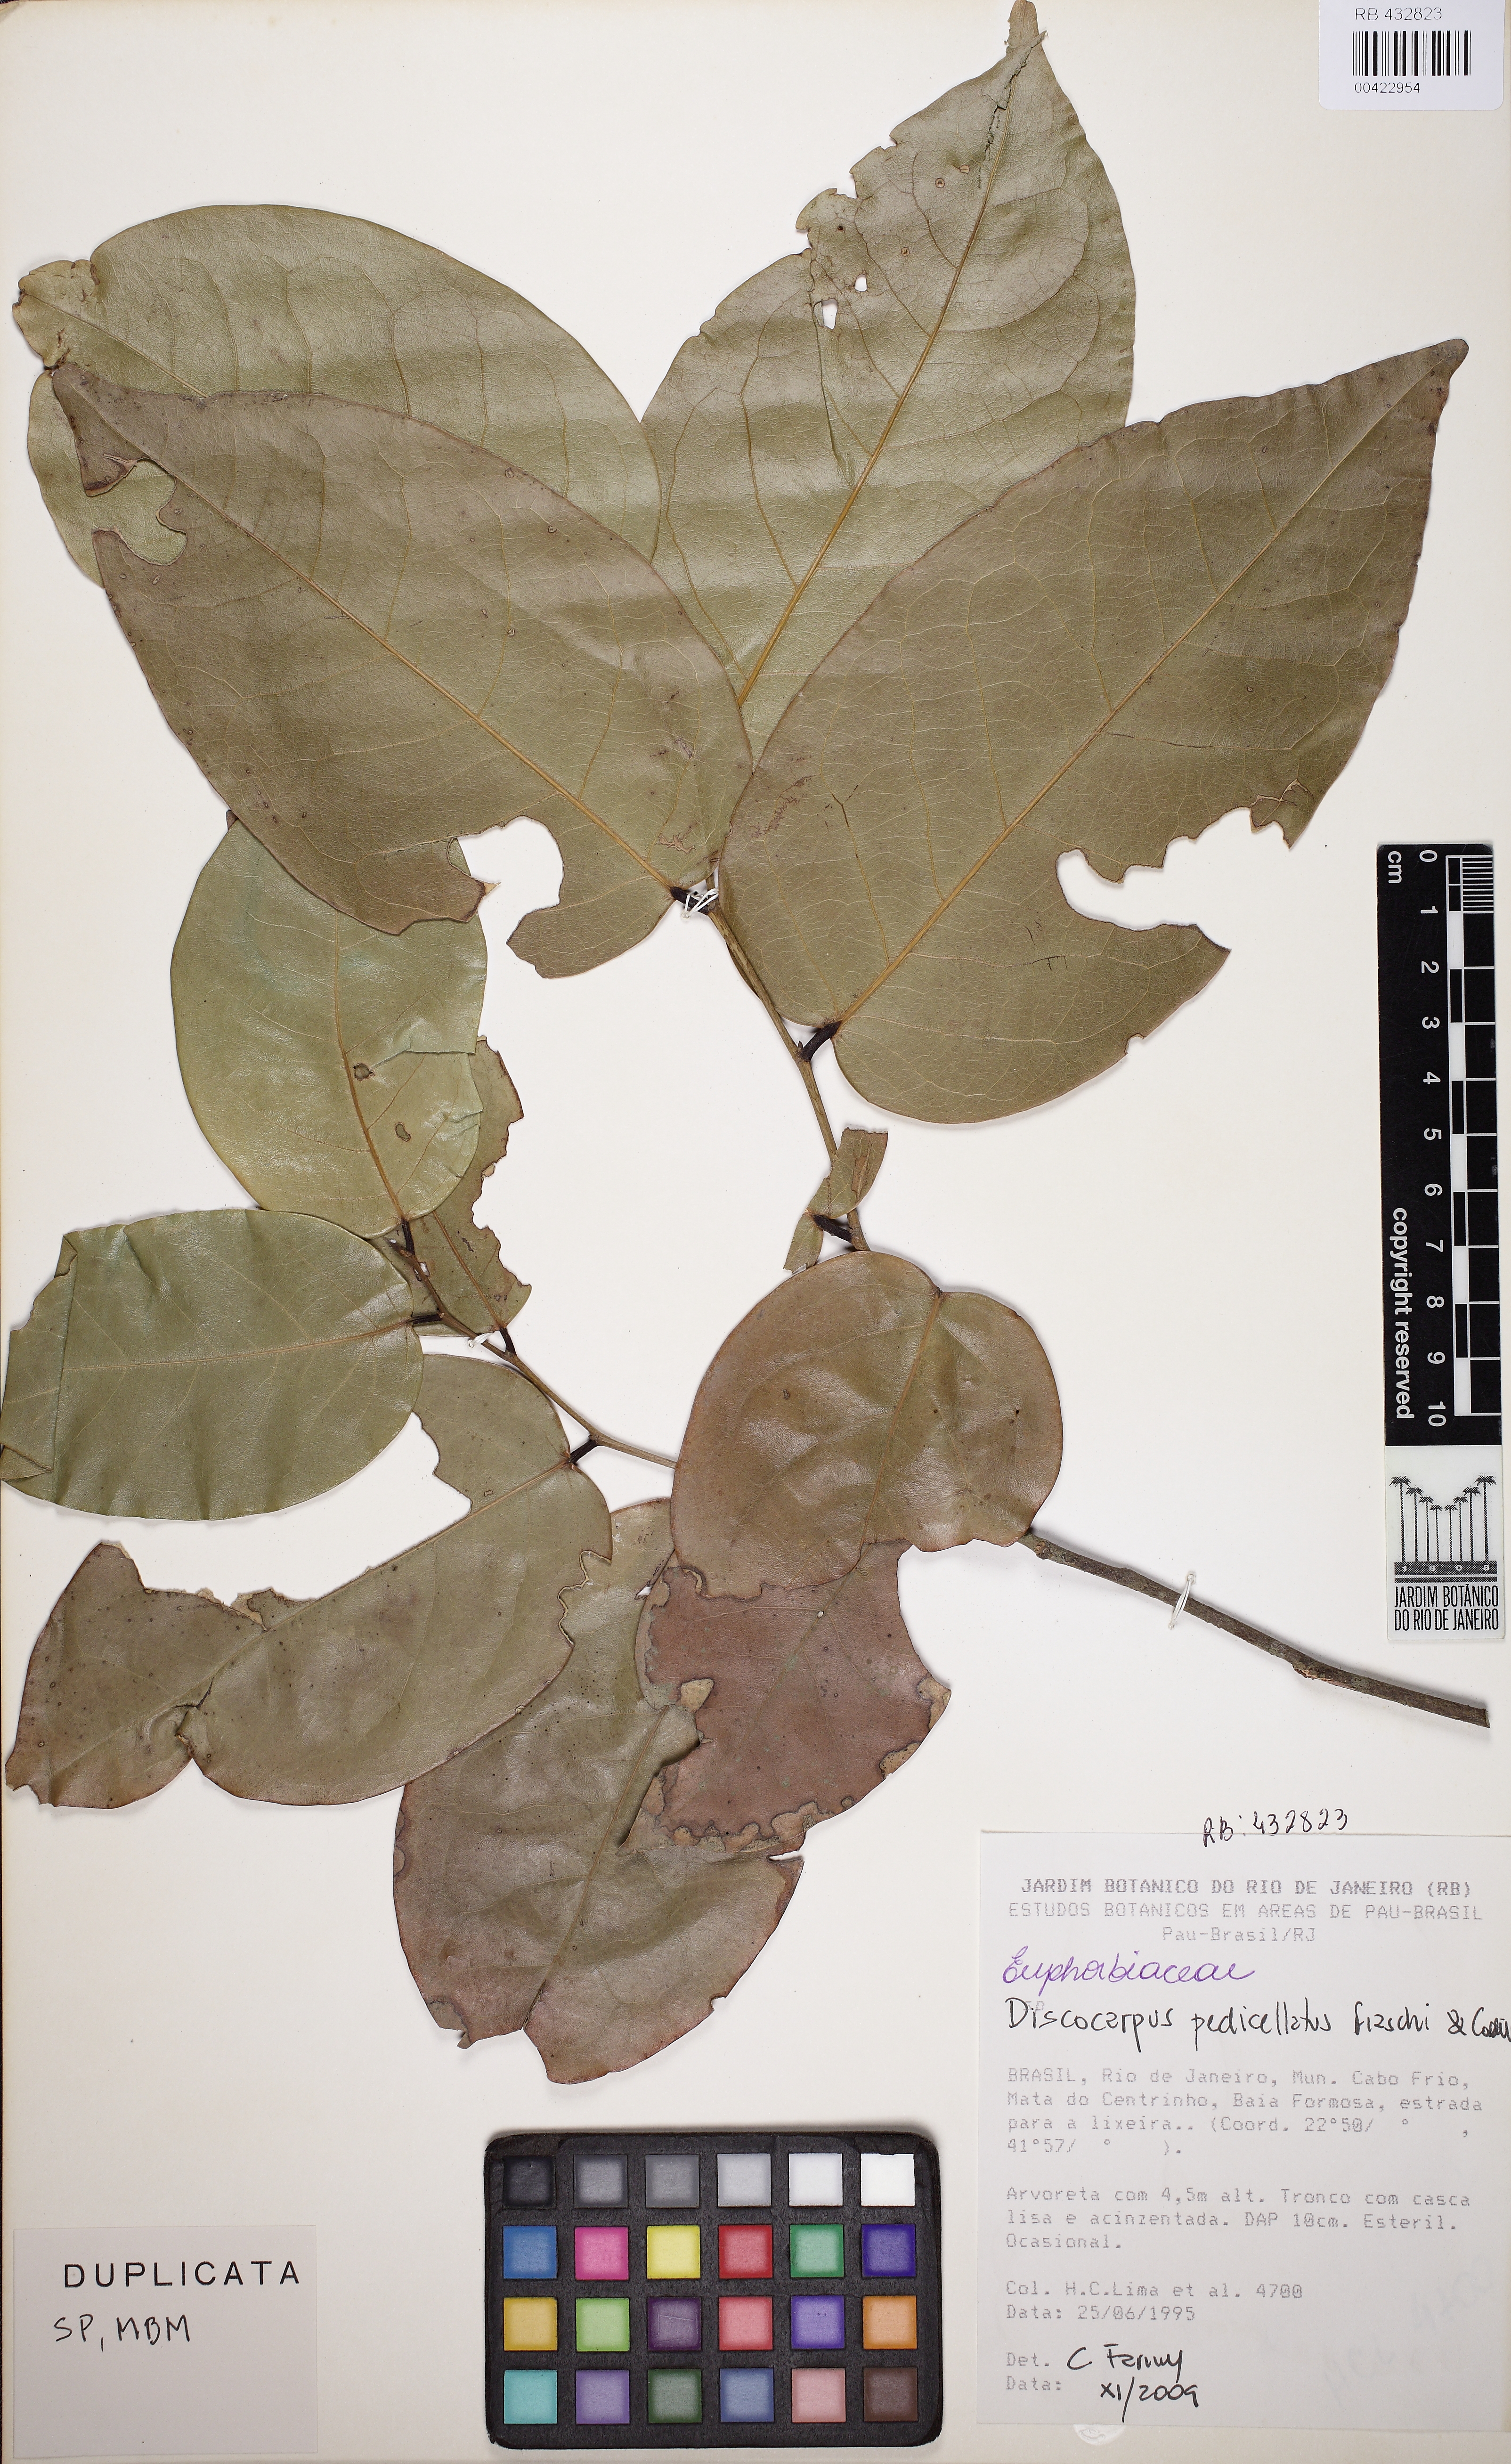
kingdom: Plantae
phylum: Tracheophyta
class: Magnoliopsida
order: Malpighiales
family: Phyllanthaceae
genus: Discocarpus
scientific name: Discocarpus pedicellatus
